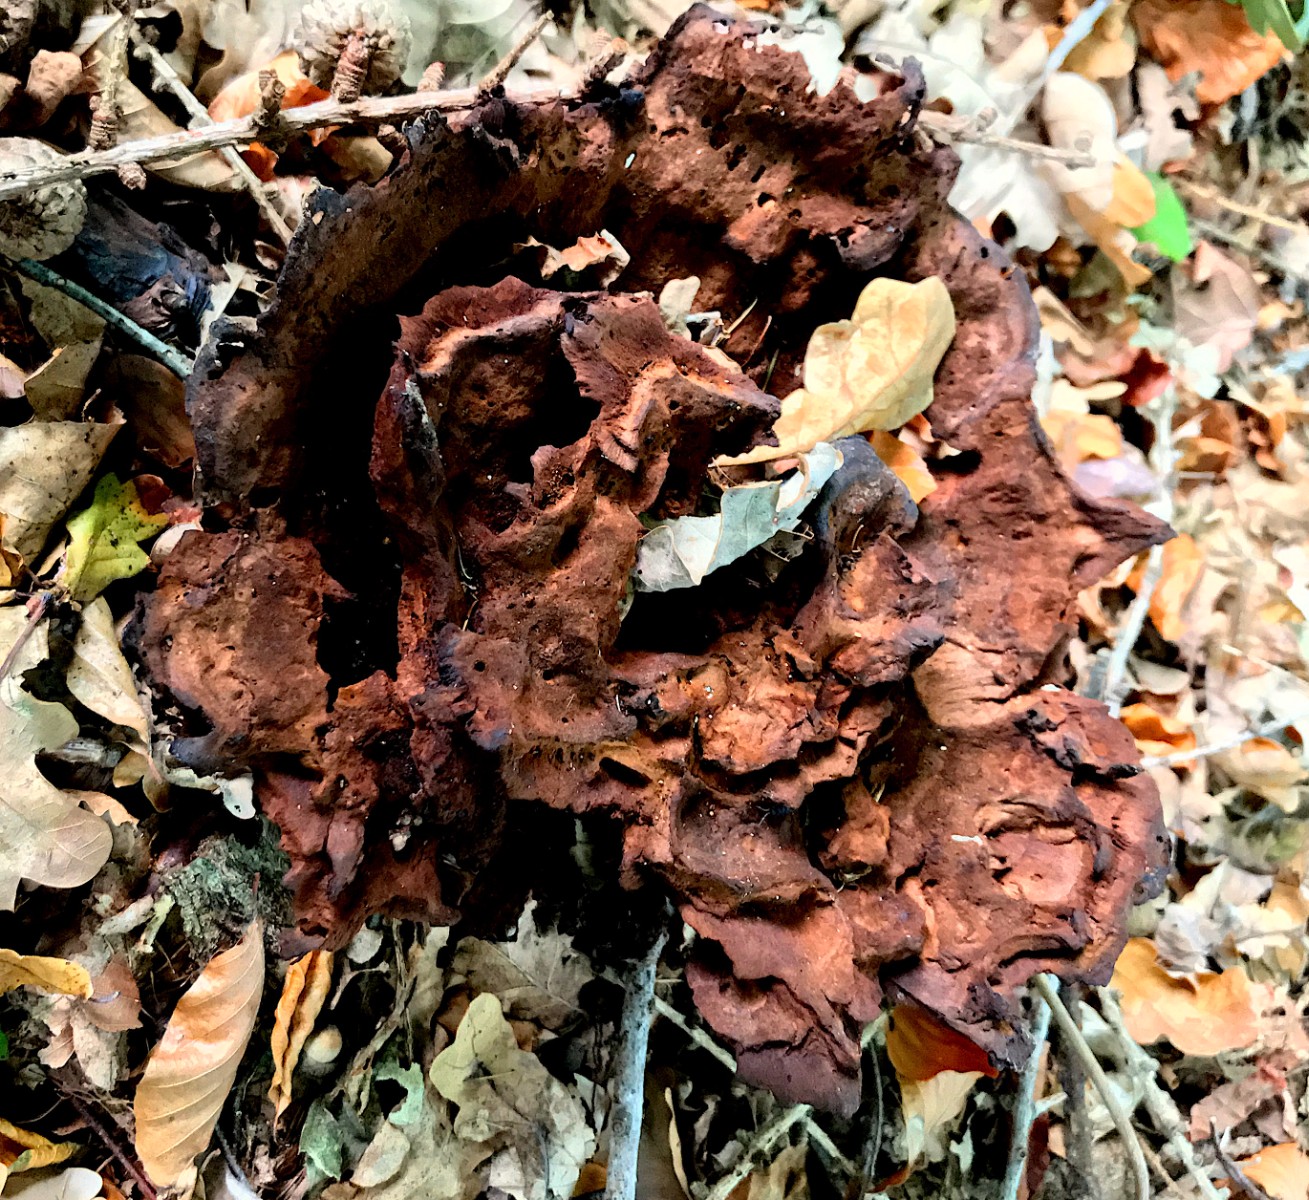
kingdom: Fungi
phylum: Basidiomycota
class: Agaricomycetes
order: Polyporales
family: Laetiporaceae
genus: Phaeolus
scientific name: Phaeolus schweinitzii
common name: brunporesvamp
